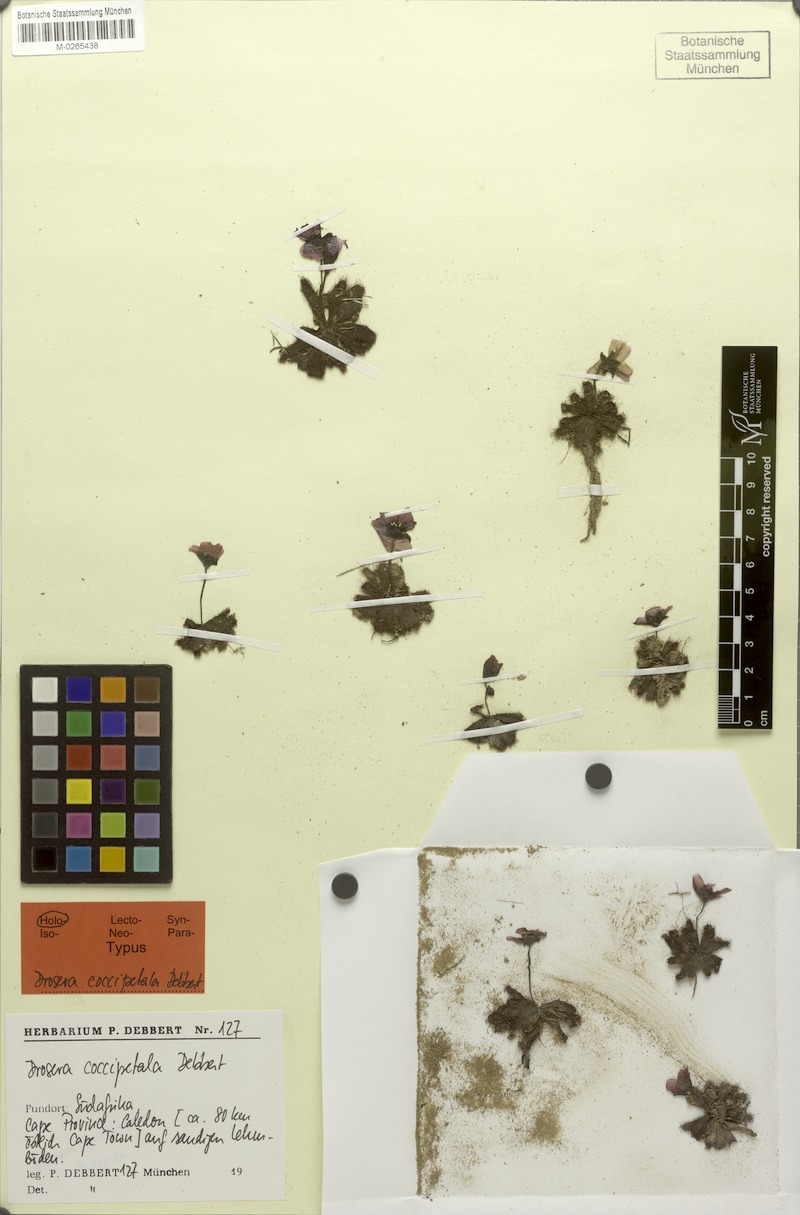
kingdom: Plantae
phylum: Tracheophyta
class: Magnoliopsida
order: Caryophyllales
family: Droseraceae
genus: Drosera
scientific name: Drosera coccipetala
